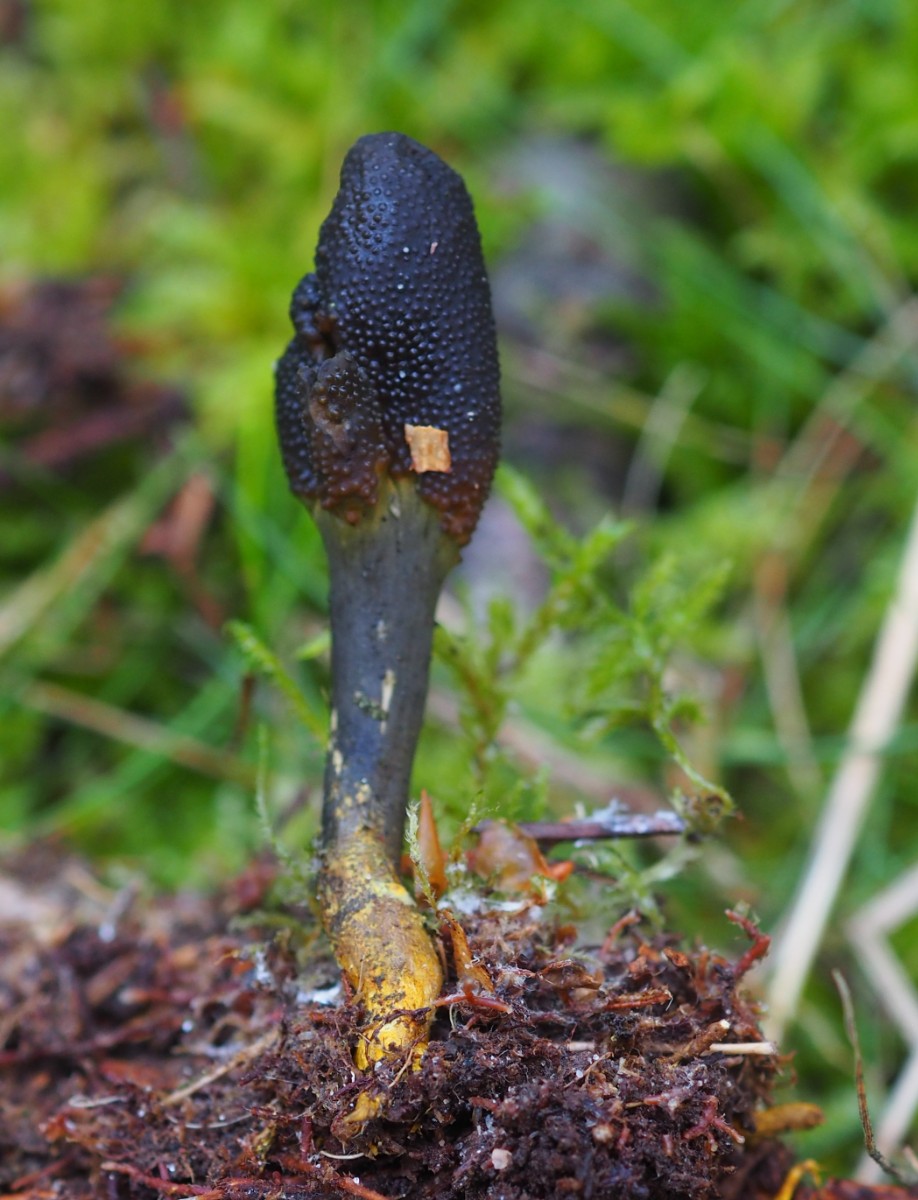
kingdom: Fungi
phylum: Ascomycota
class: Sordariomycetes
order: Hypocreales
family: Ophiocordycipitaceae
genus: Tolypocladium
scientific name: Tolypocladium ophioglossoides
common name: slank snyltekølle
